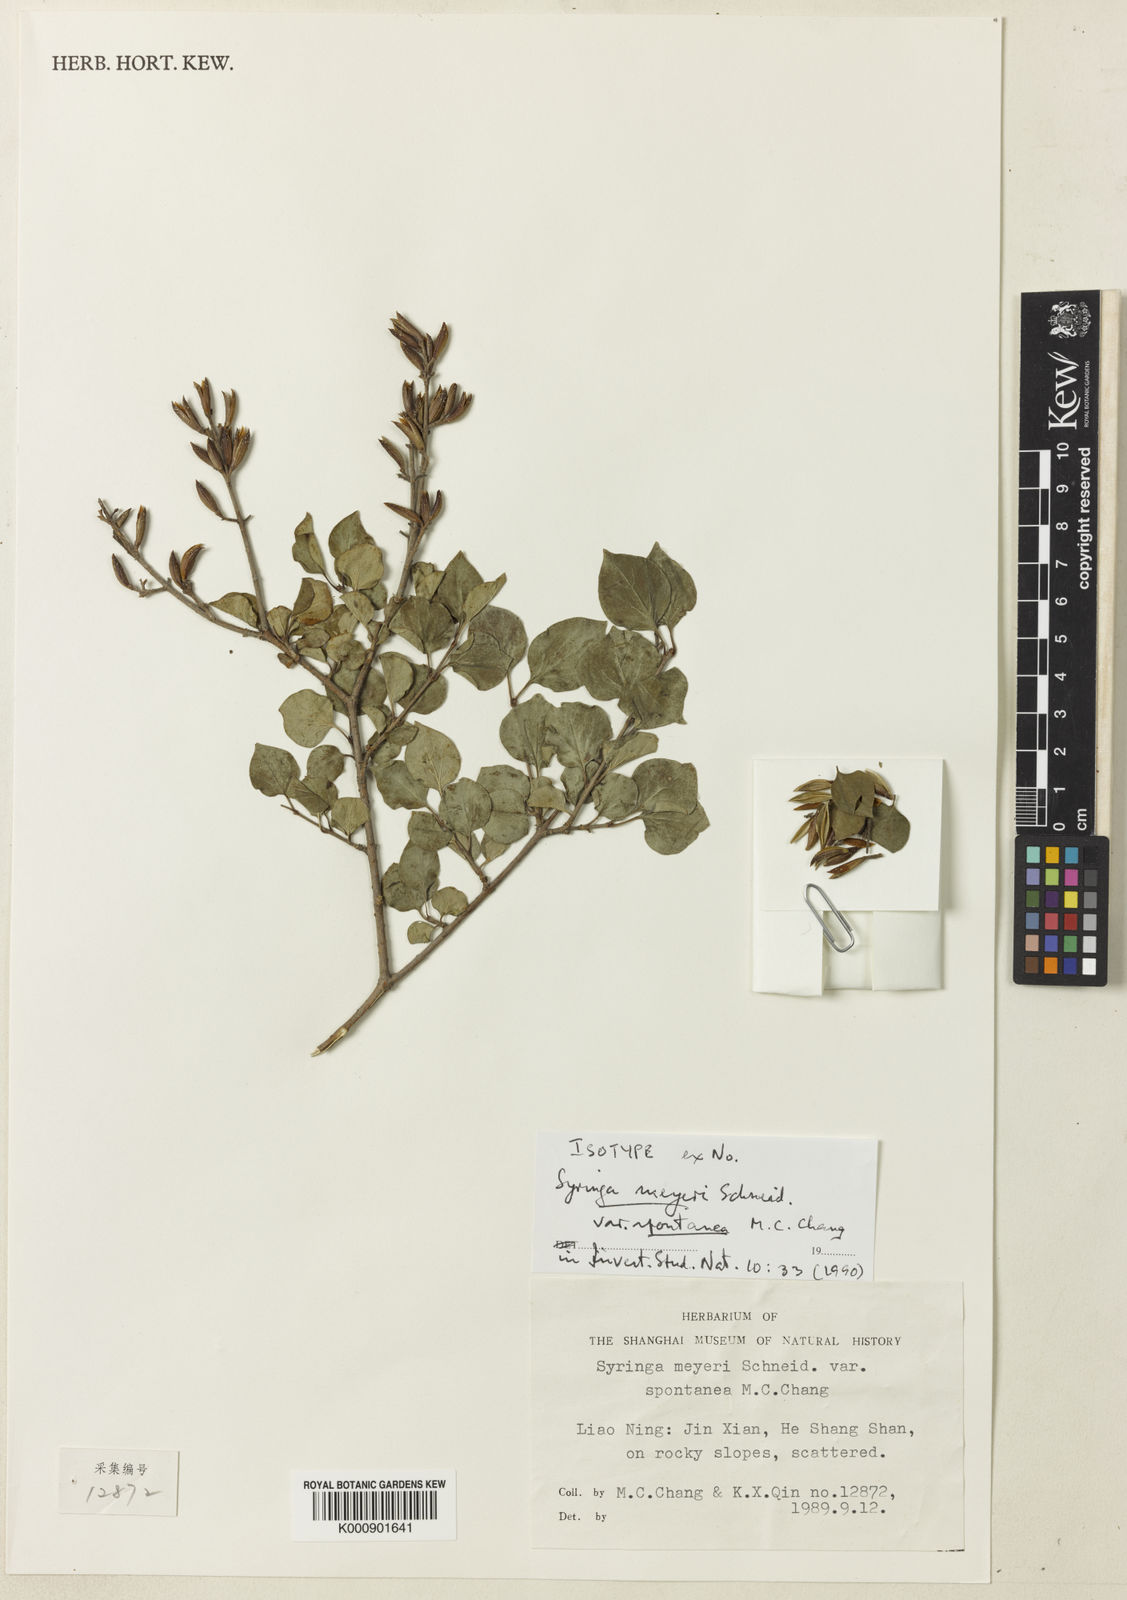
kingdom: Plantae
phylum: Tracheophyta
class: Magnoliopsida
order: Lamiales
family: Oleaceae
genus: Syringa
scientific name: Syringa pubescens
